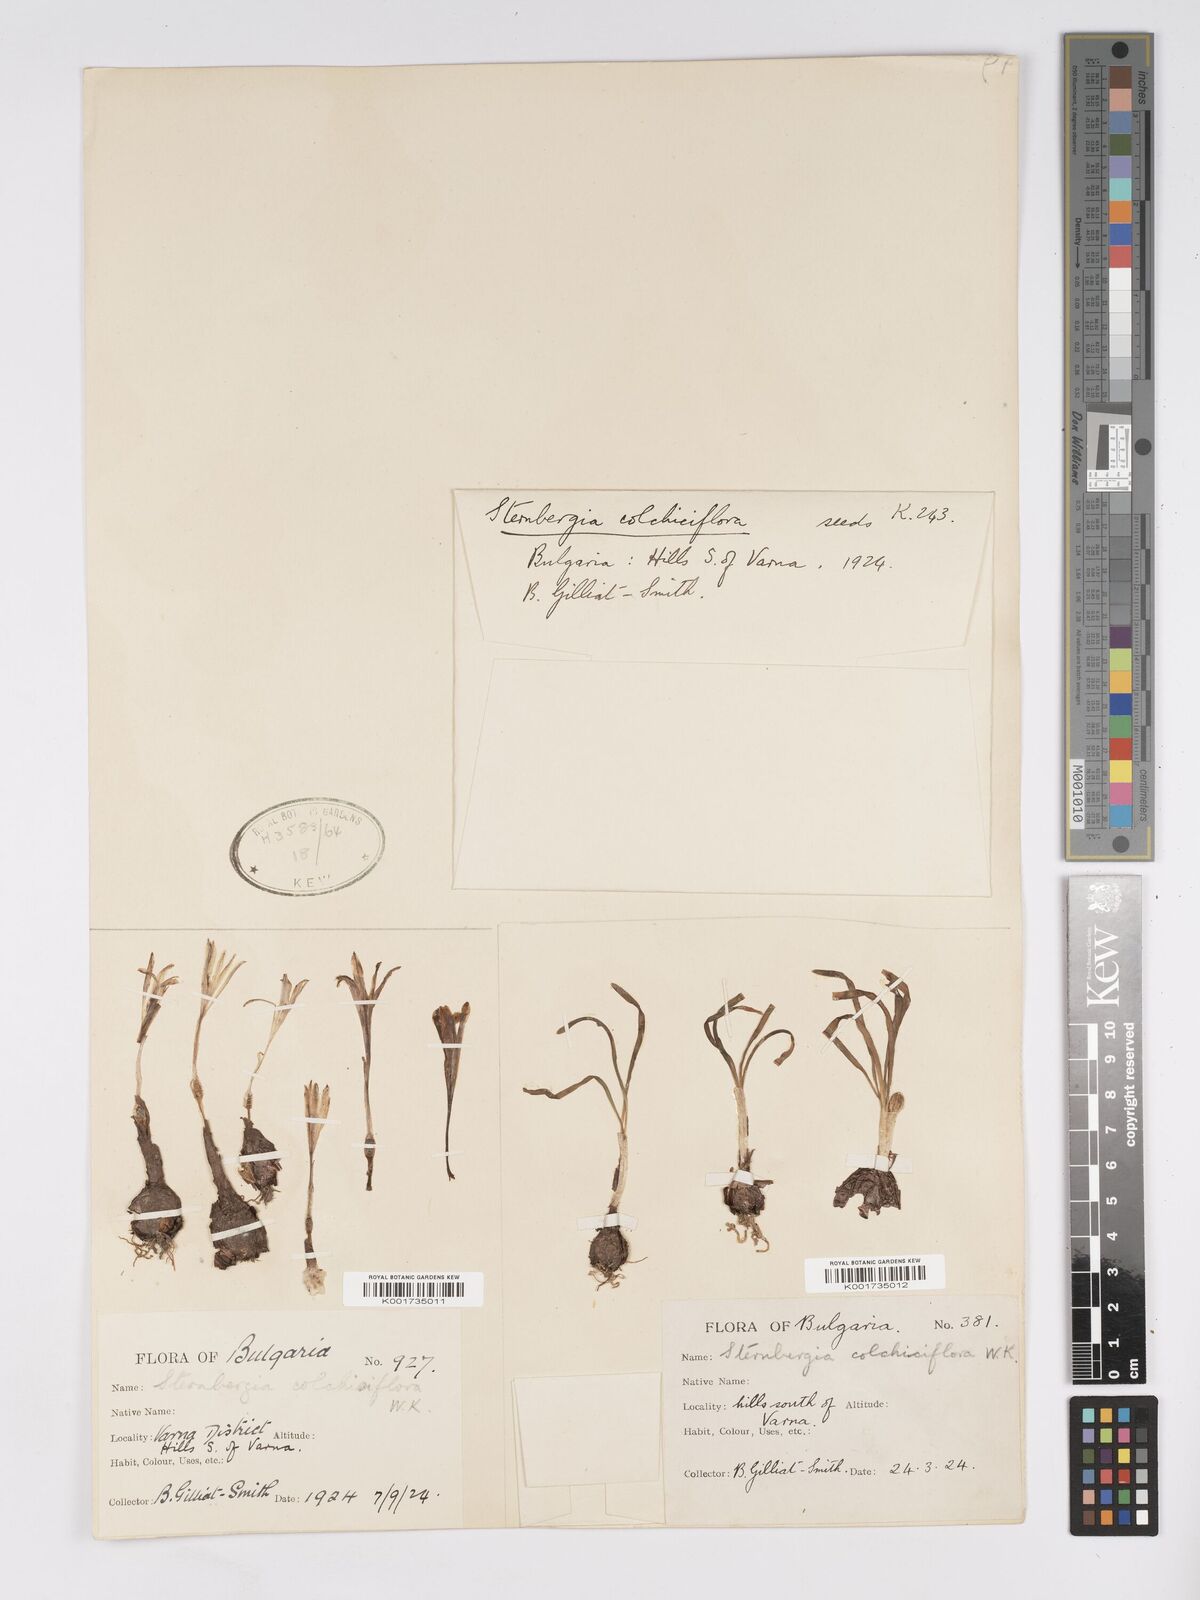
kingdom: Plantae
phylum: Tracheophyta
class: Liliopsida
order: Asparagales
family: Amaryllidaceae
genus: Sternbergia
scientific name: Sternbergia colchiciflora
